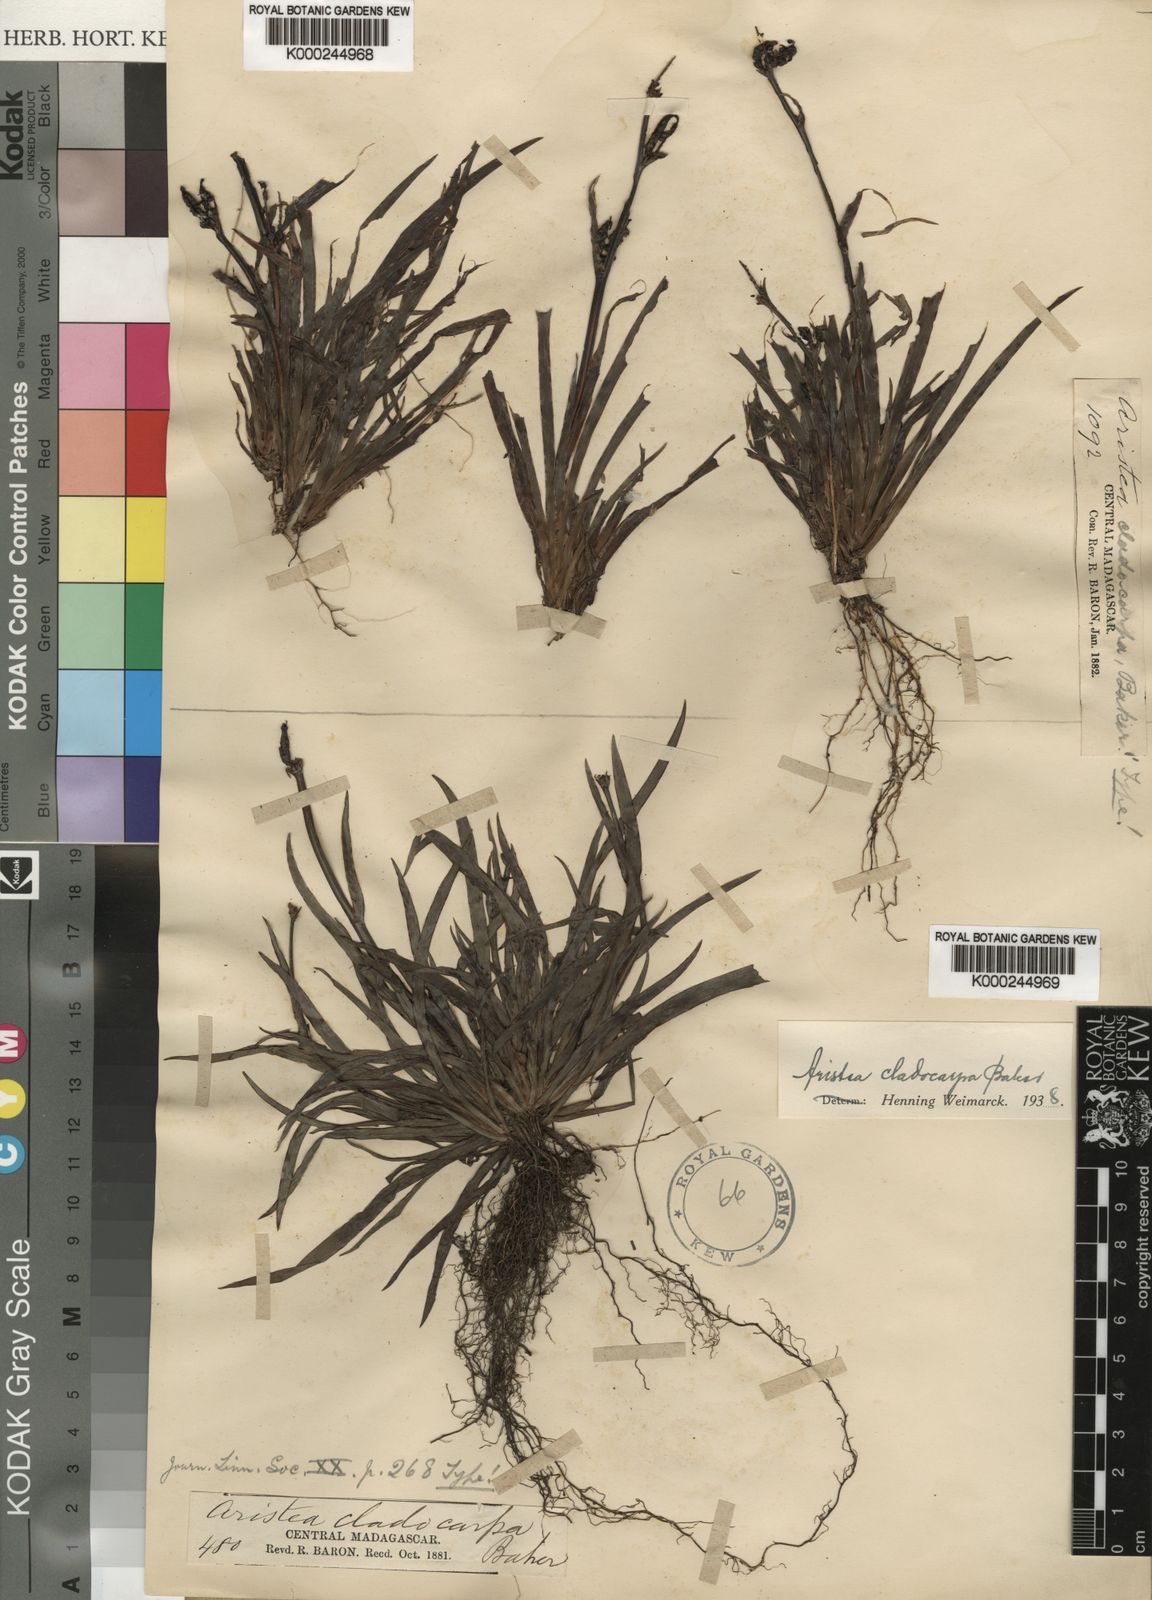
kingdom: Plantae
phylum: Tracheophyta
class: Liliopsida
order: Asparagales
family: Iridaceae
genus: Aristea
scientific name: Aristea cladocarpa
